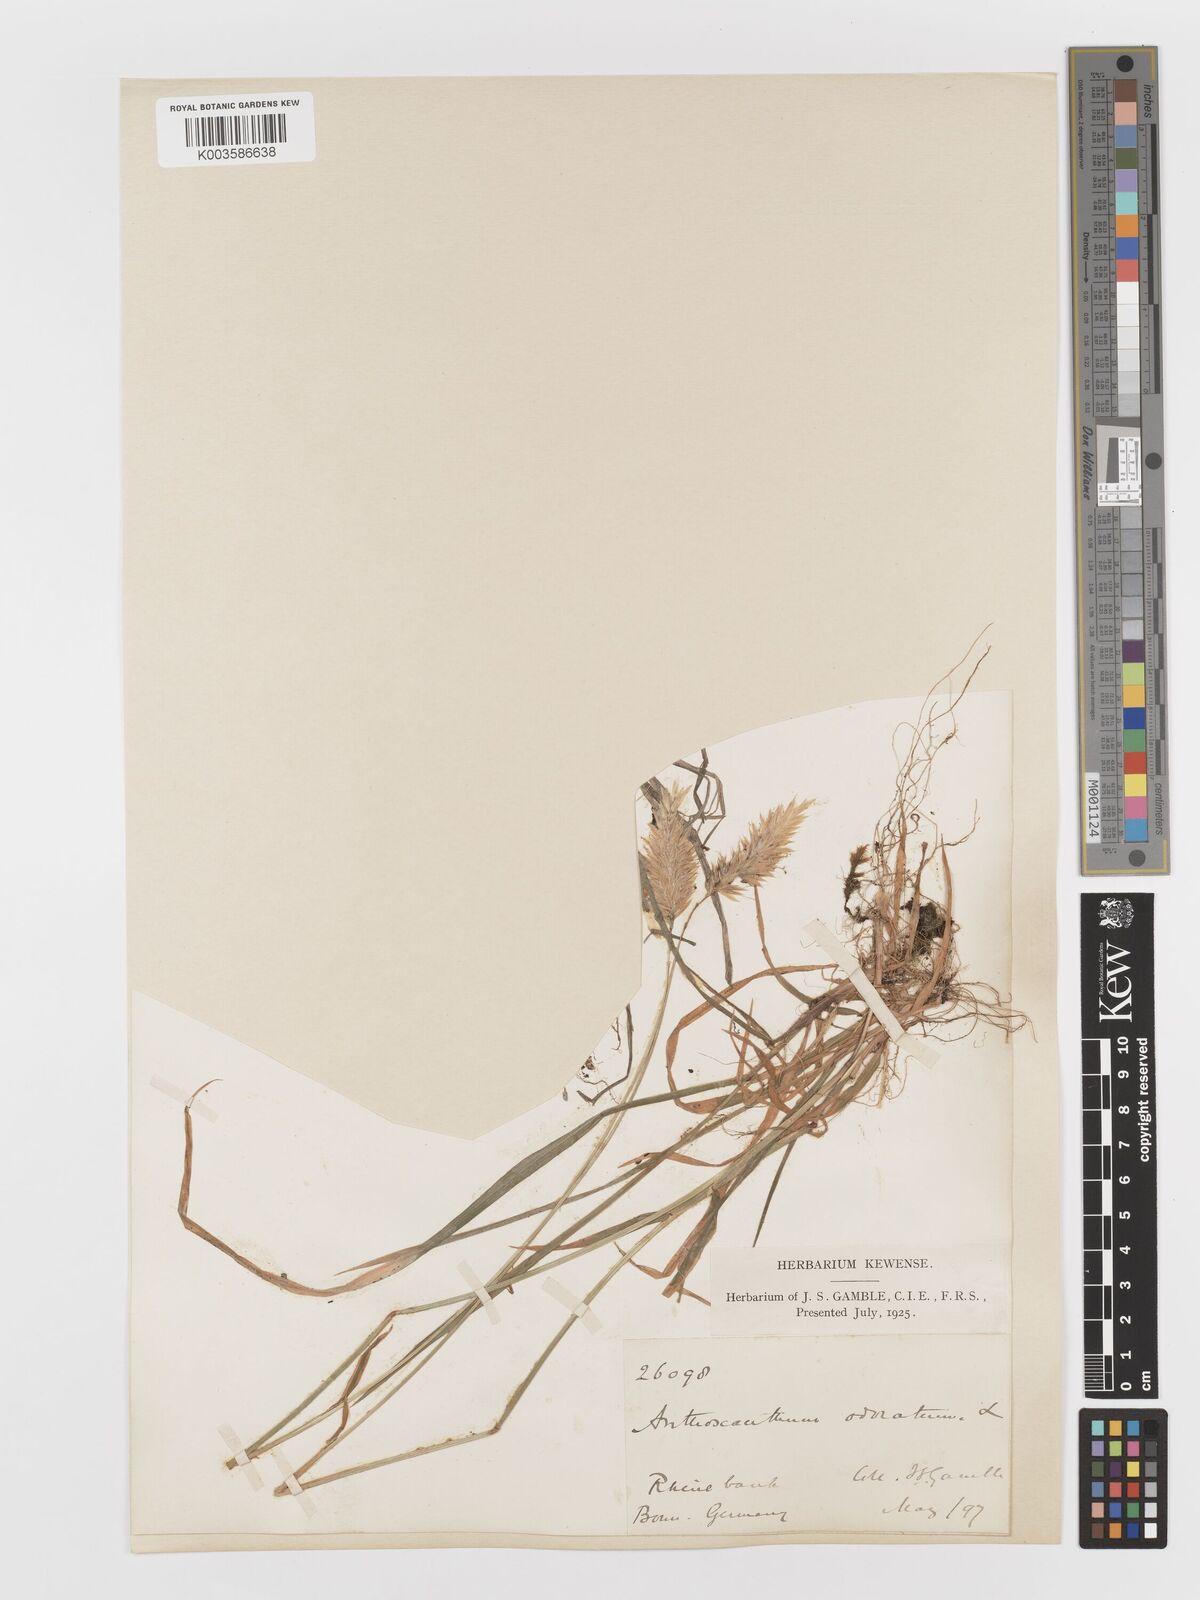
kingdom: Plantae
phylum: Tracheophyta
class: Liliopsida
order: Poales
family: Poaceae
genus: Anthoxanthum
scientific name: Anthoxanthum odoratum
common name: Sweet vernalgrass
